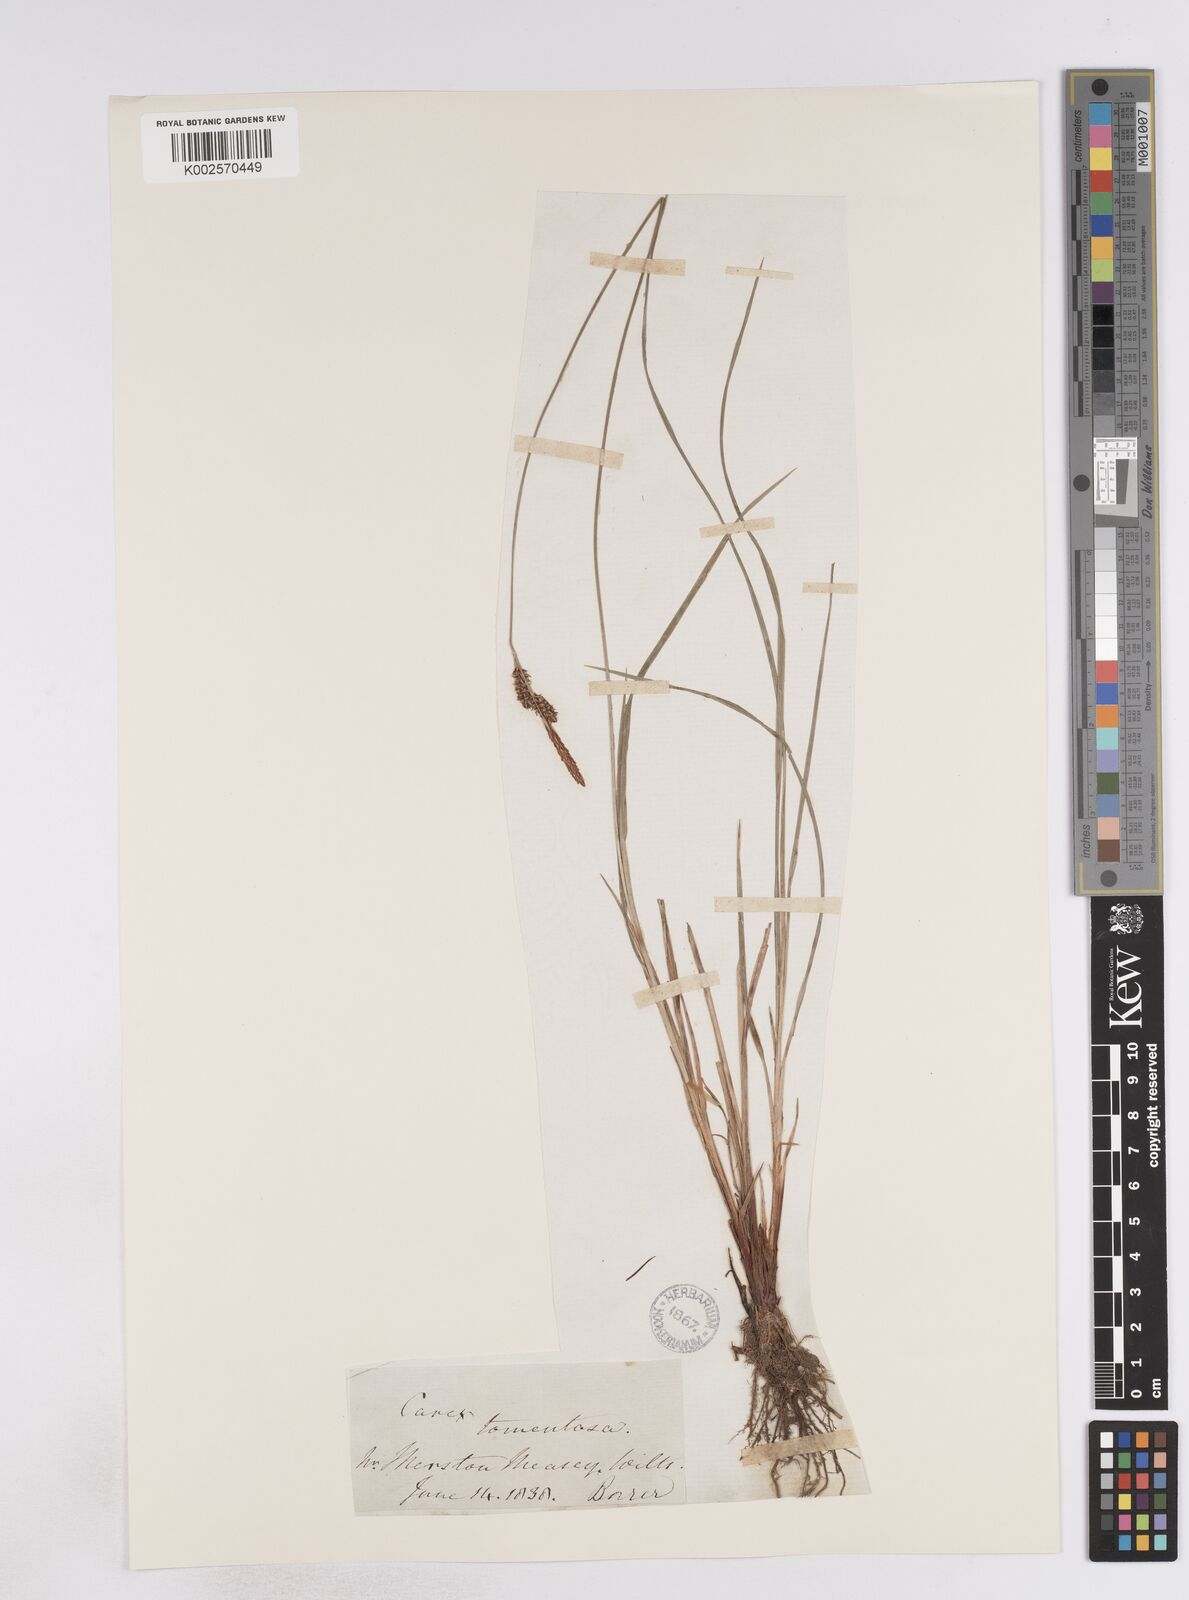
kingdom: Plantae
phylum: Tracheophyta
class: Liliopsida
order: Poales
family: Cyperaceae
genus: Carex
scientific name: Carex montana
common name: Soft-leaved sedge
